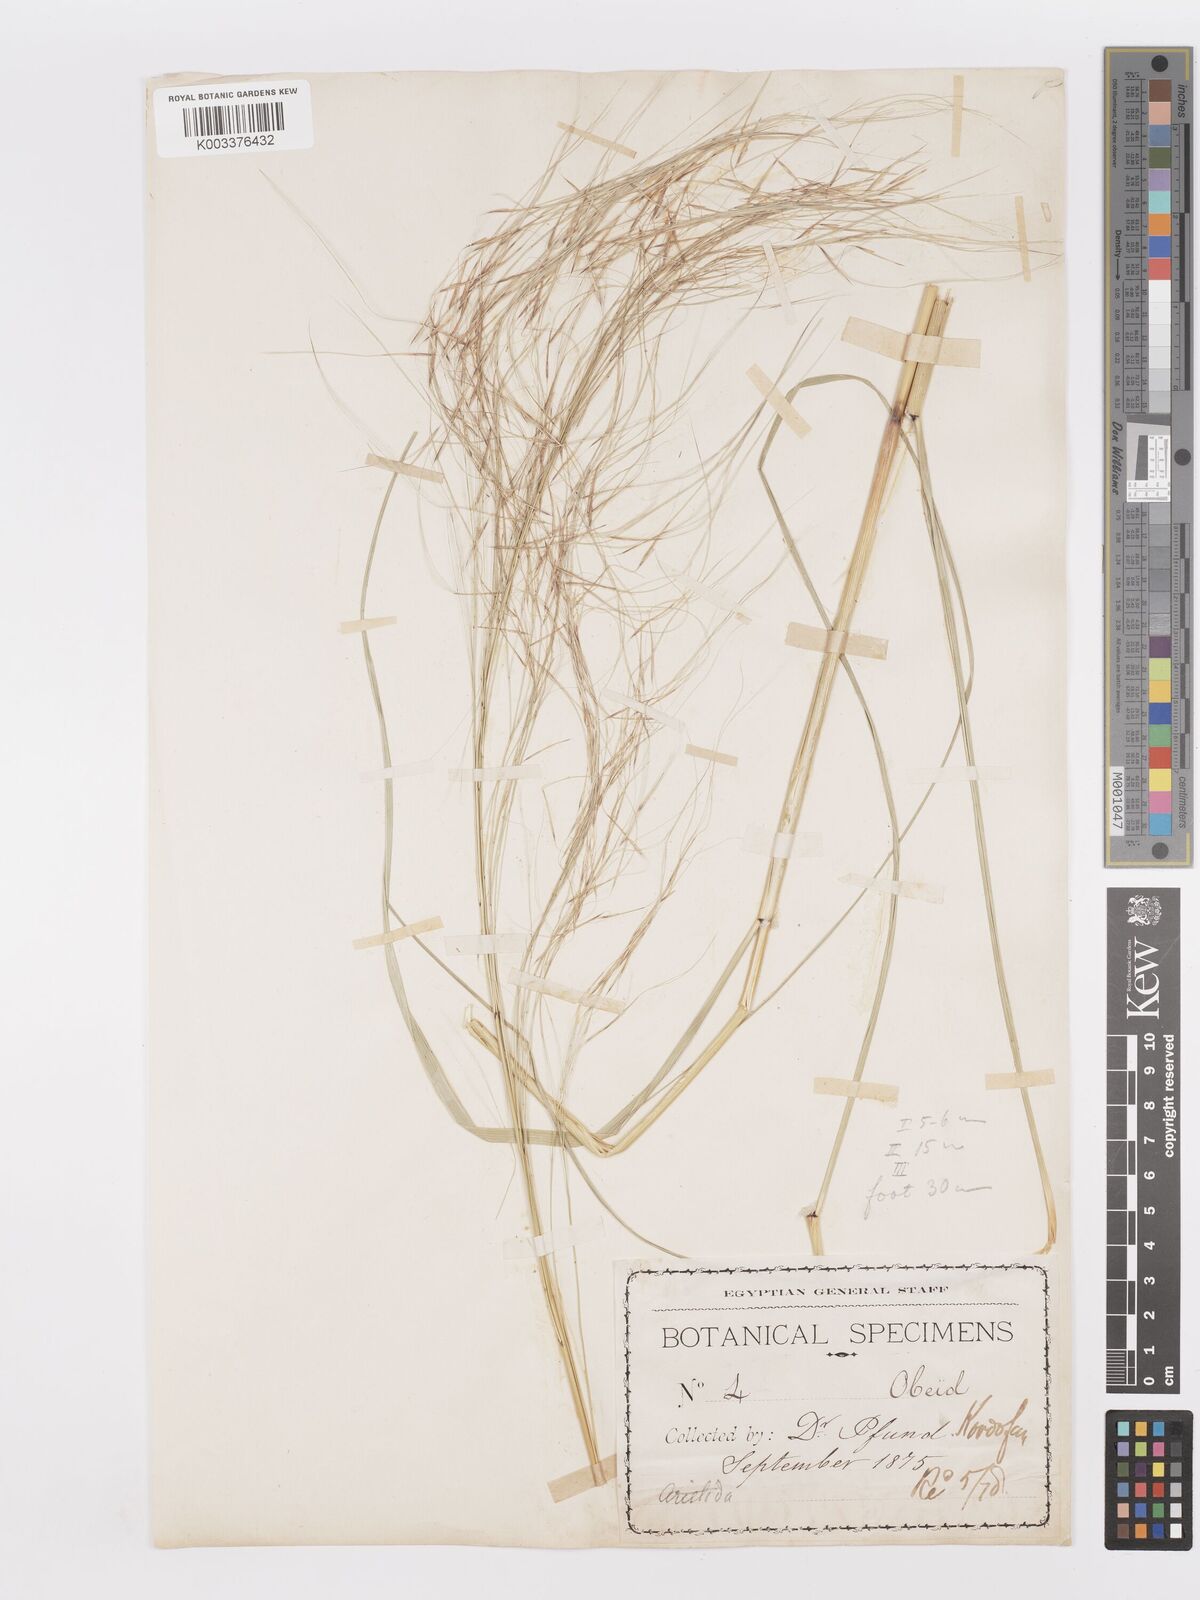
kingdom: Plantae
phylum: Tracheophyta
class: Liliopsida
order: Poales
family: Poaceae
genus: Aristida
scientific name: Aristida stipoides
